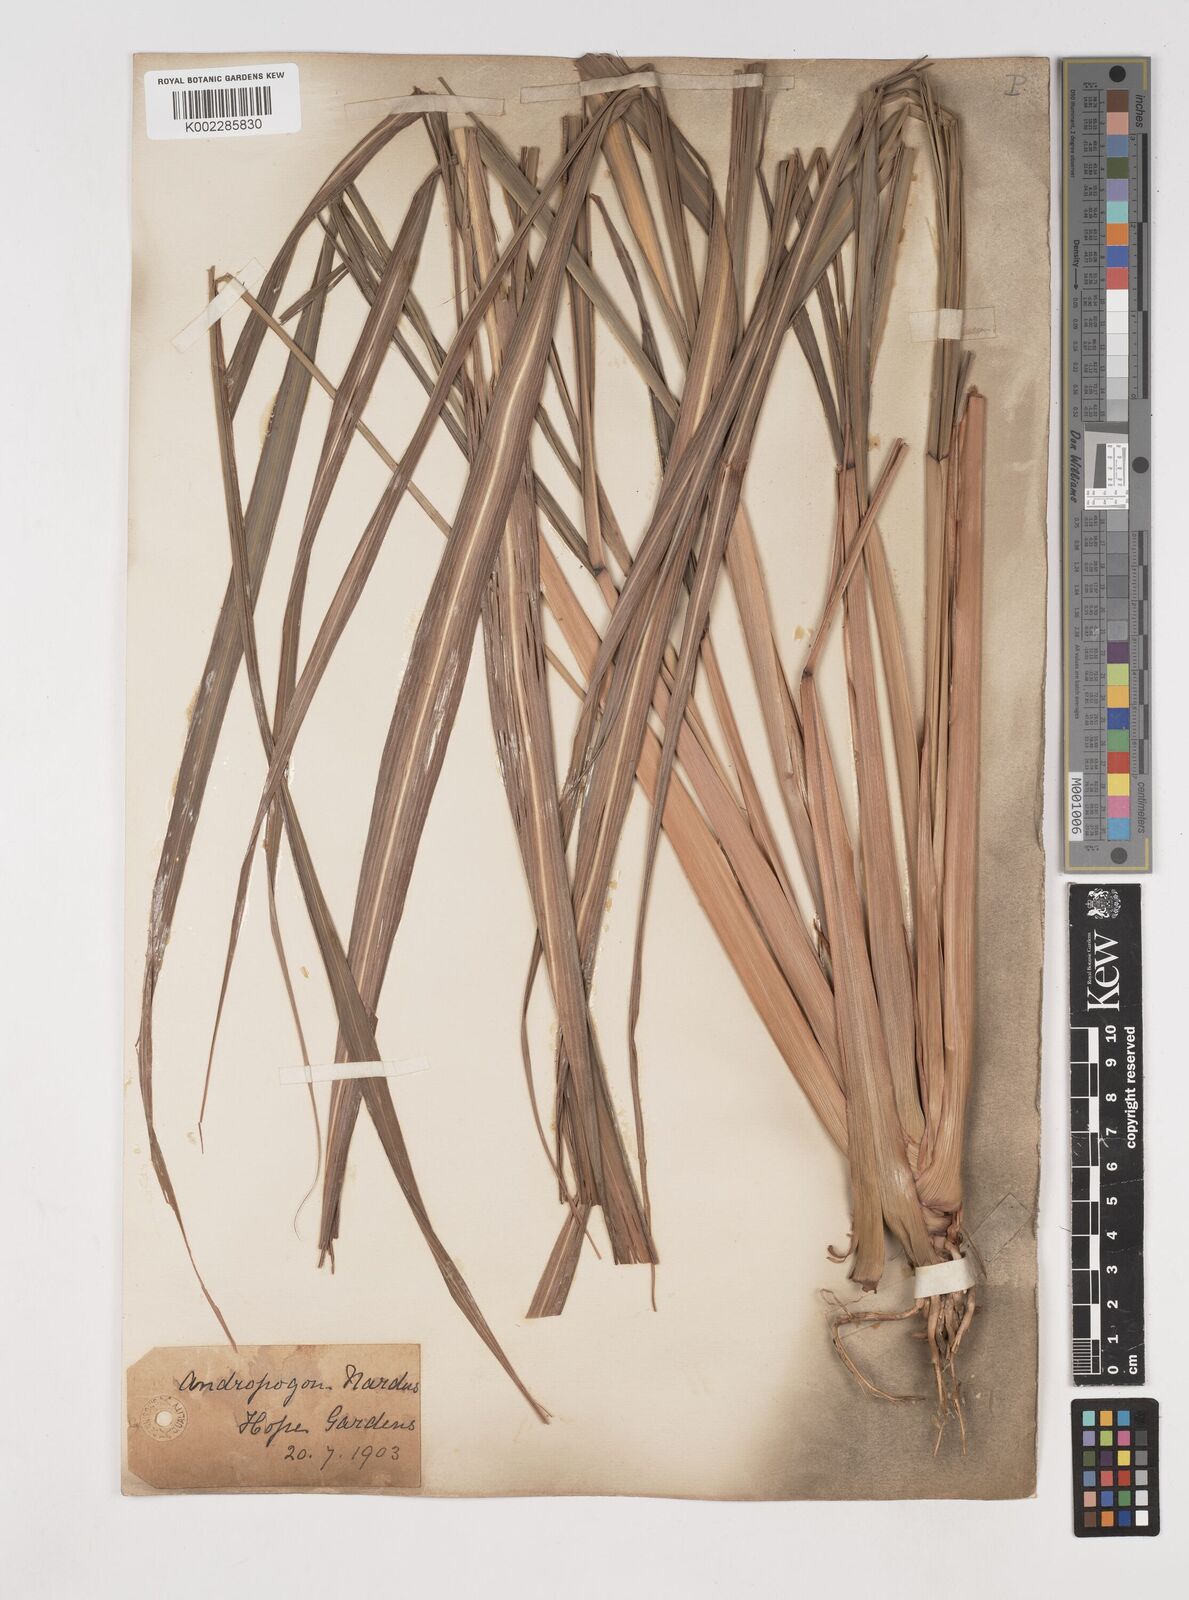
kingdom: Plantae
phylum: Tracheophyta
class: Liliopsida
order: Poales
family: Poaceae
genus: Cymbopogon
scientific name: Cymbopogon winterianus
